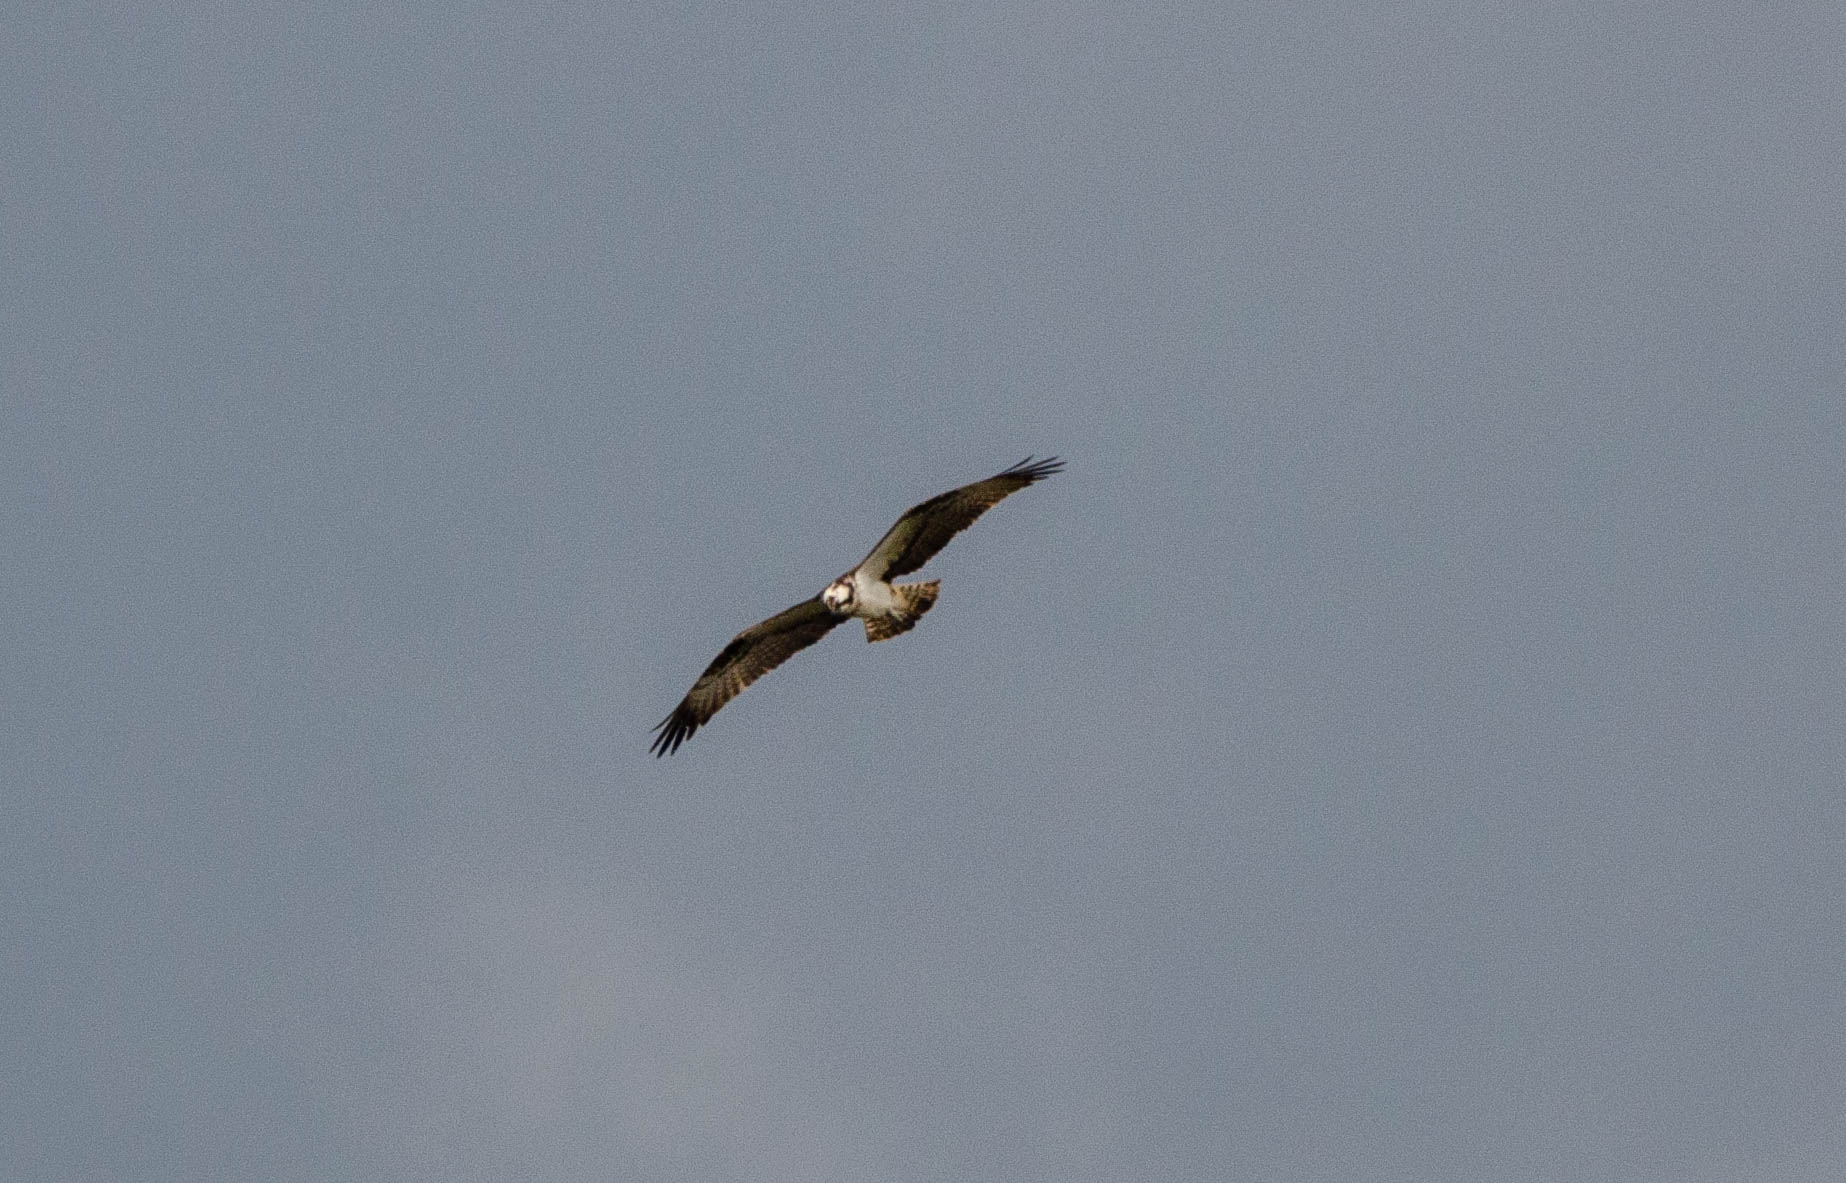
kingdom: Animalia
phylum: Chordata
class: Aves
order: Accipitriformes
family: Pandionidae
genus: Pandion
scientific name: Pandion haliaetus
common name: Fiskeørn
